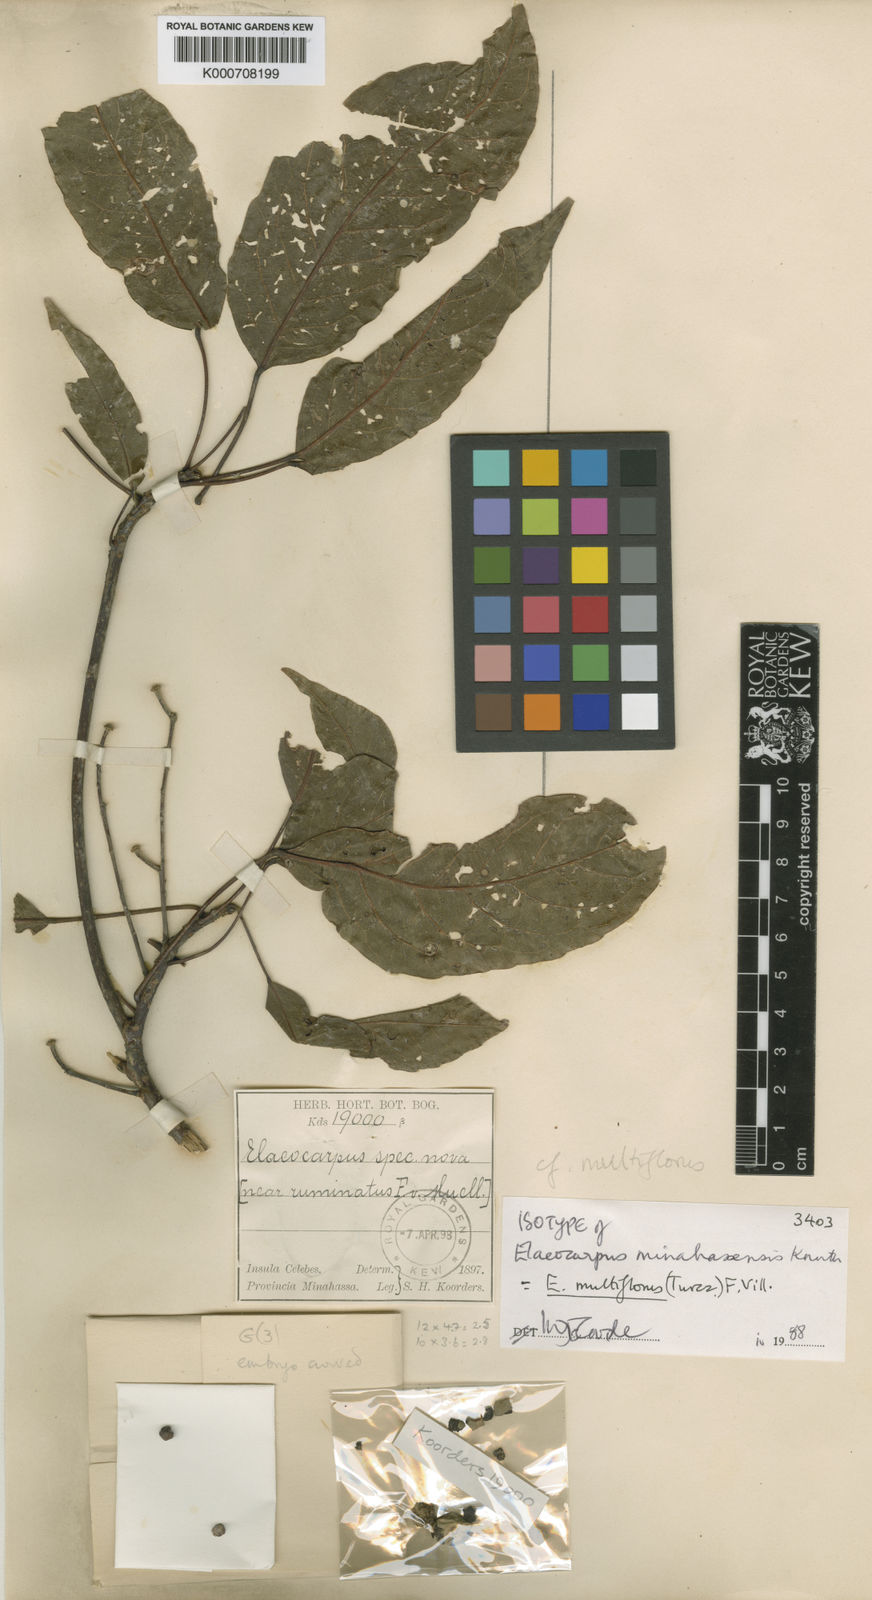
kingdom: Plantae
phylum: Tracheophyta
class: Magnoliopsida
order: Oxalidales
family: Elaeocarpaceae
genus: Elaeocarpus
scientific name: Elaeocarpus multiflorus
